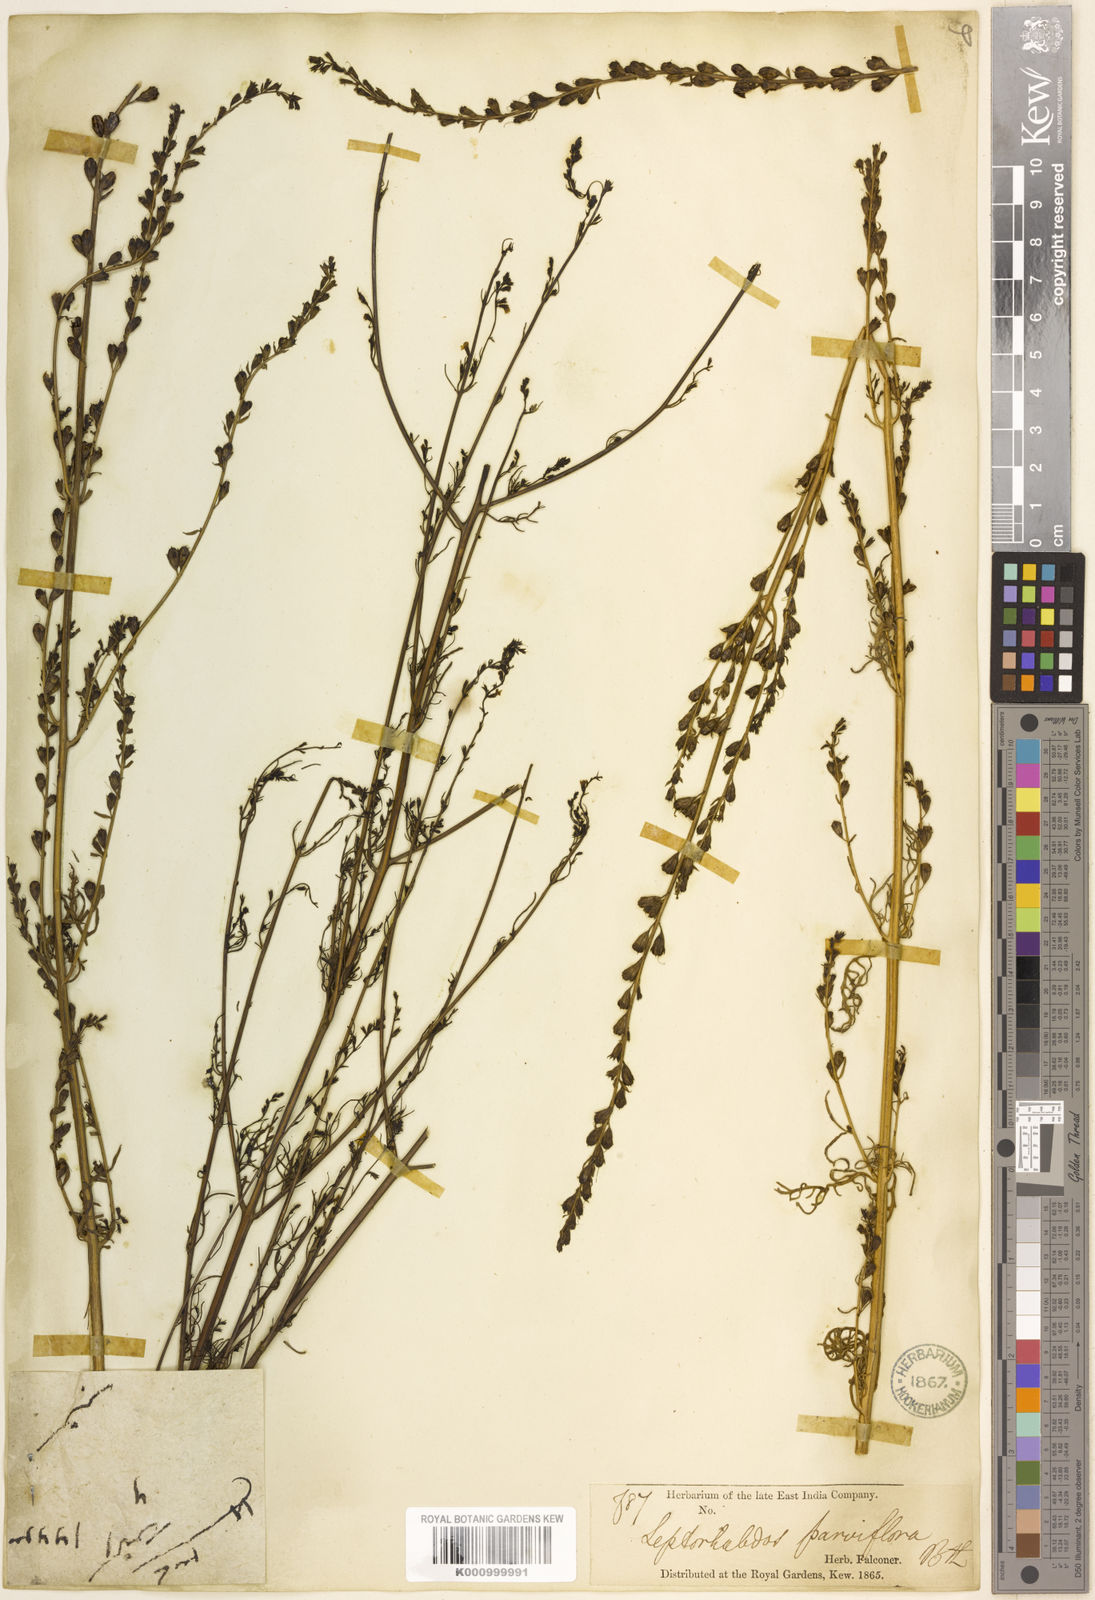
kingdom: Plantae
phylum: Tracheophyta
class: Magnoliopsida
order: Lamiales
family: Orobanchaceae
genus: Leptorhabdos
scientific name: Leptorhabdos
